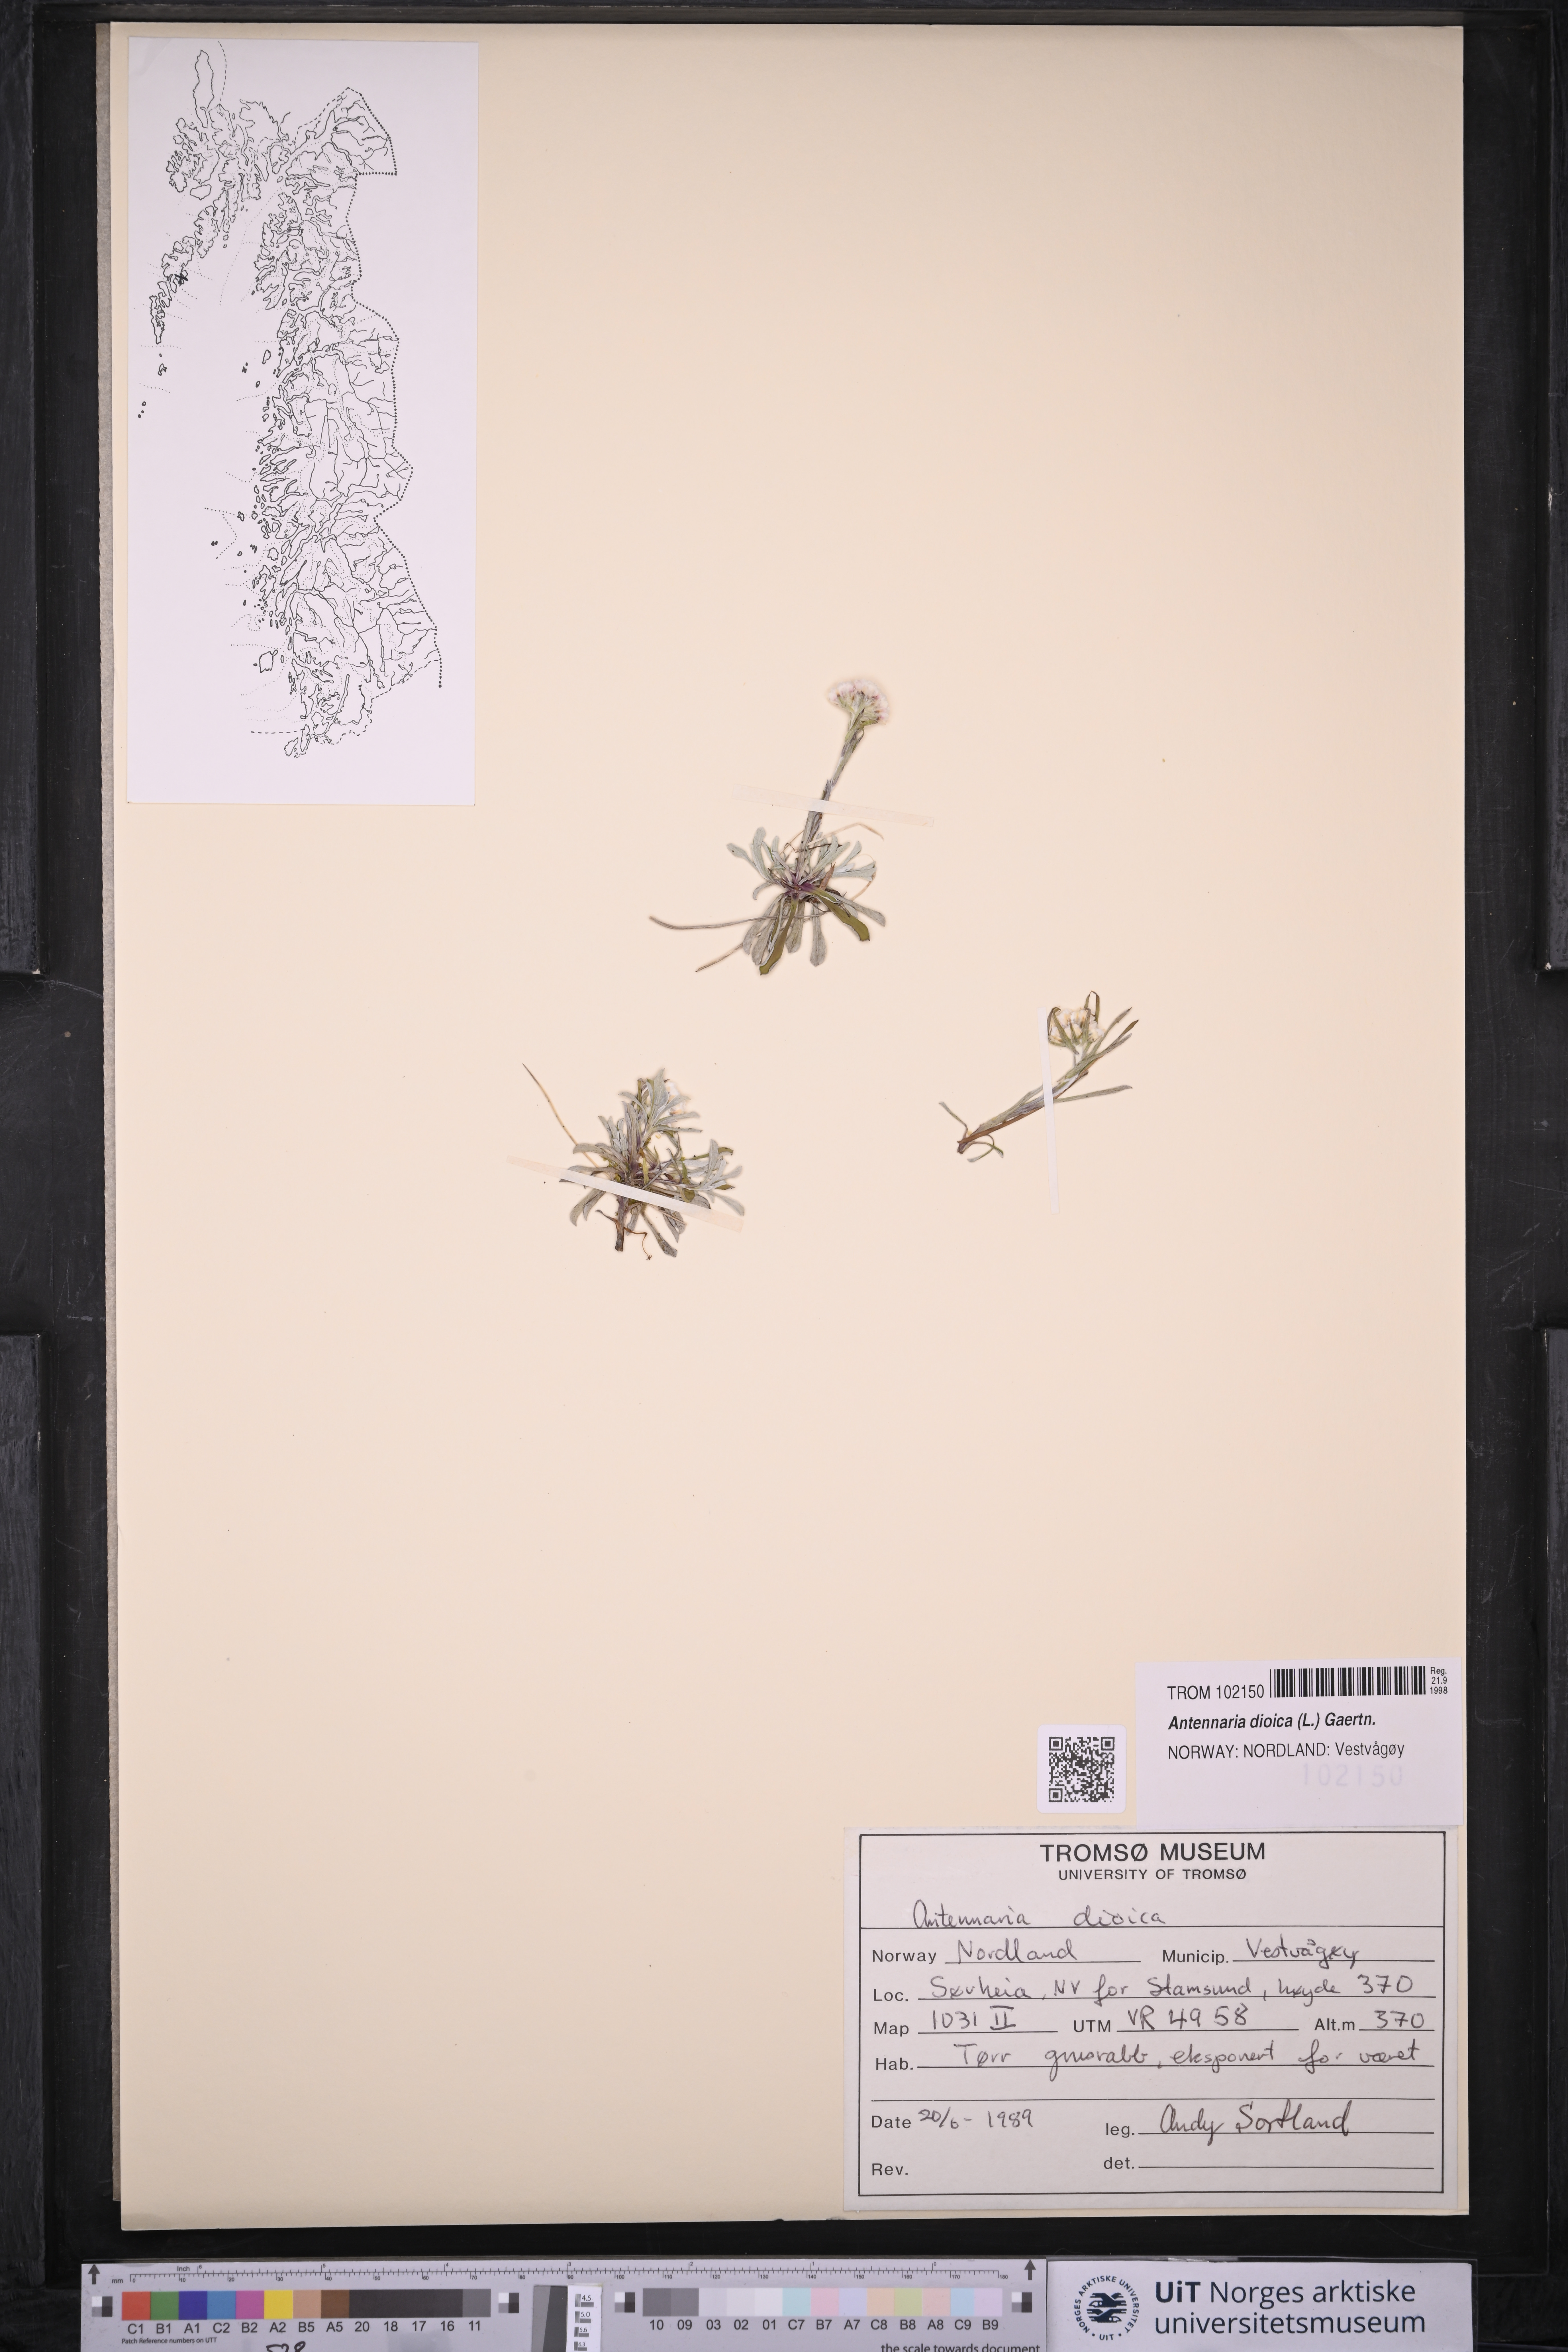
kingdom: Plantae
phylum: Tracheophyta
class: Magnoliopsida
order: Asterales
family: Asteraceae
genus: Antennaria
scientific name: Antennaria dioica
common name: Mountain everlasting
